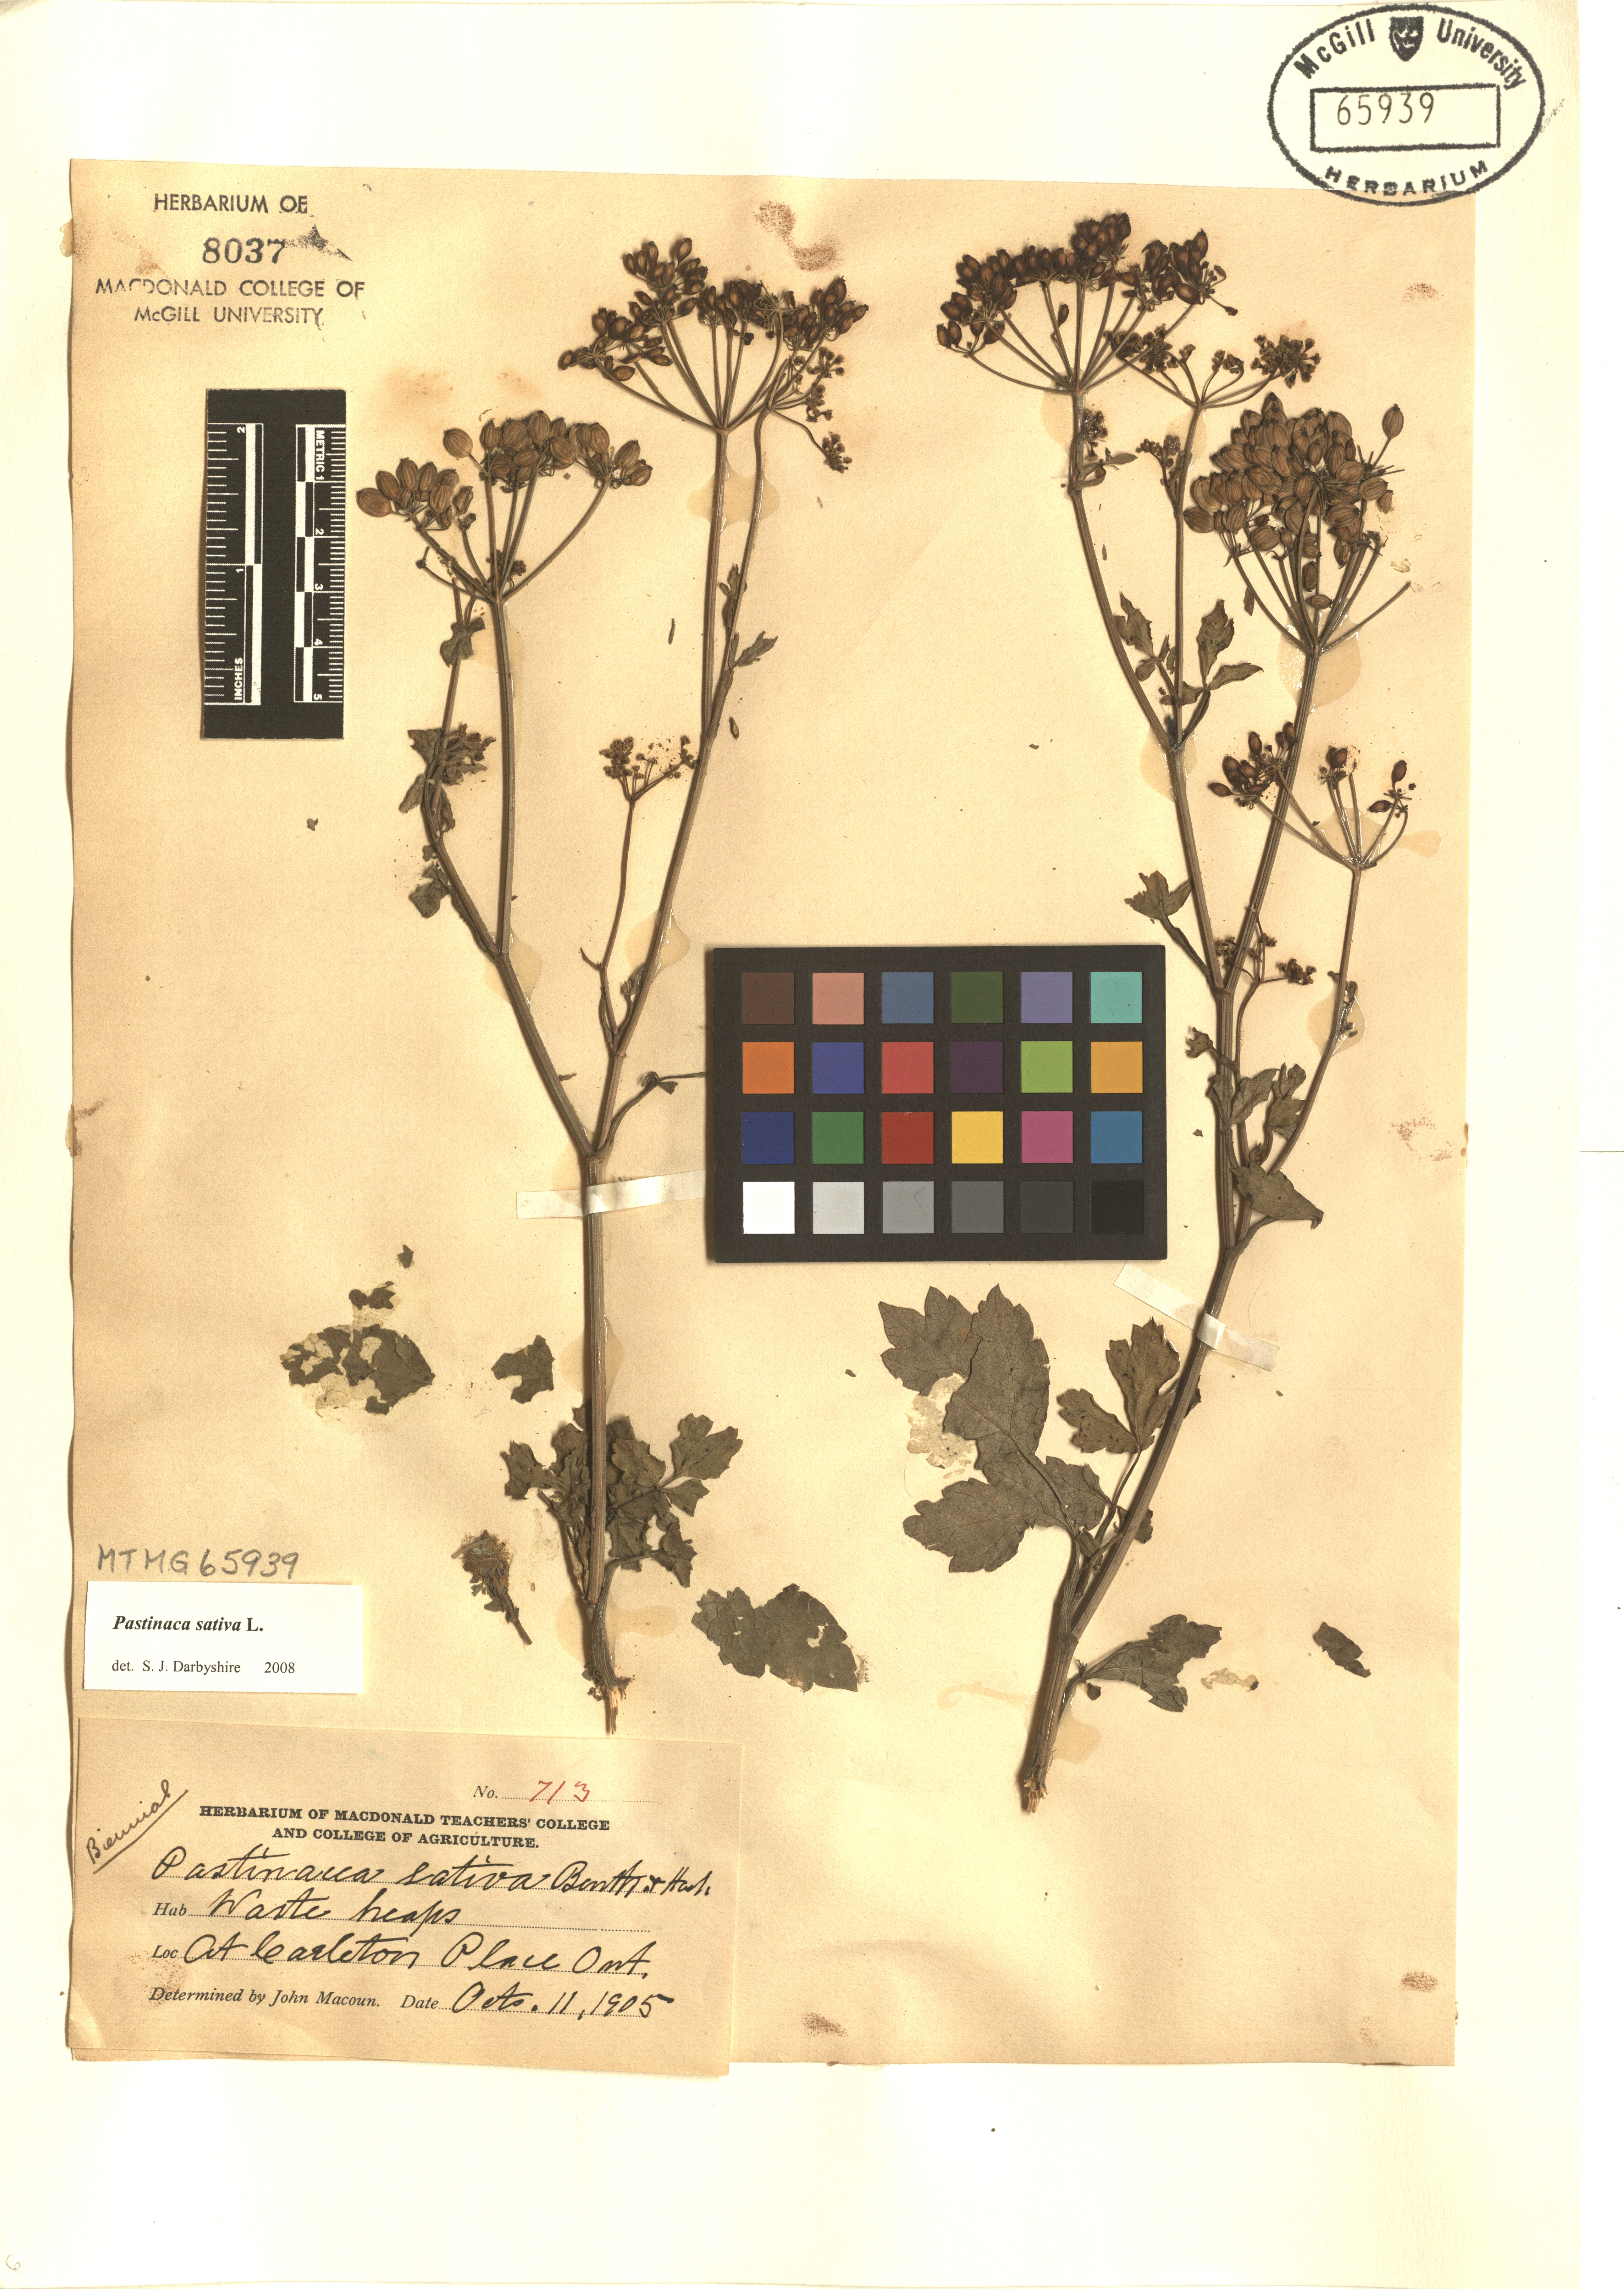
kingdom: Plantae
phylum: Tracheophyta
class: Magnoliopsida
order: Apiales
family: Apiaceae
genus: Pastinaca
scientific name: Pastinaca sativa
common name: Wild parsnip
